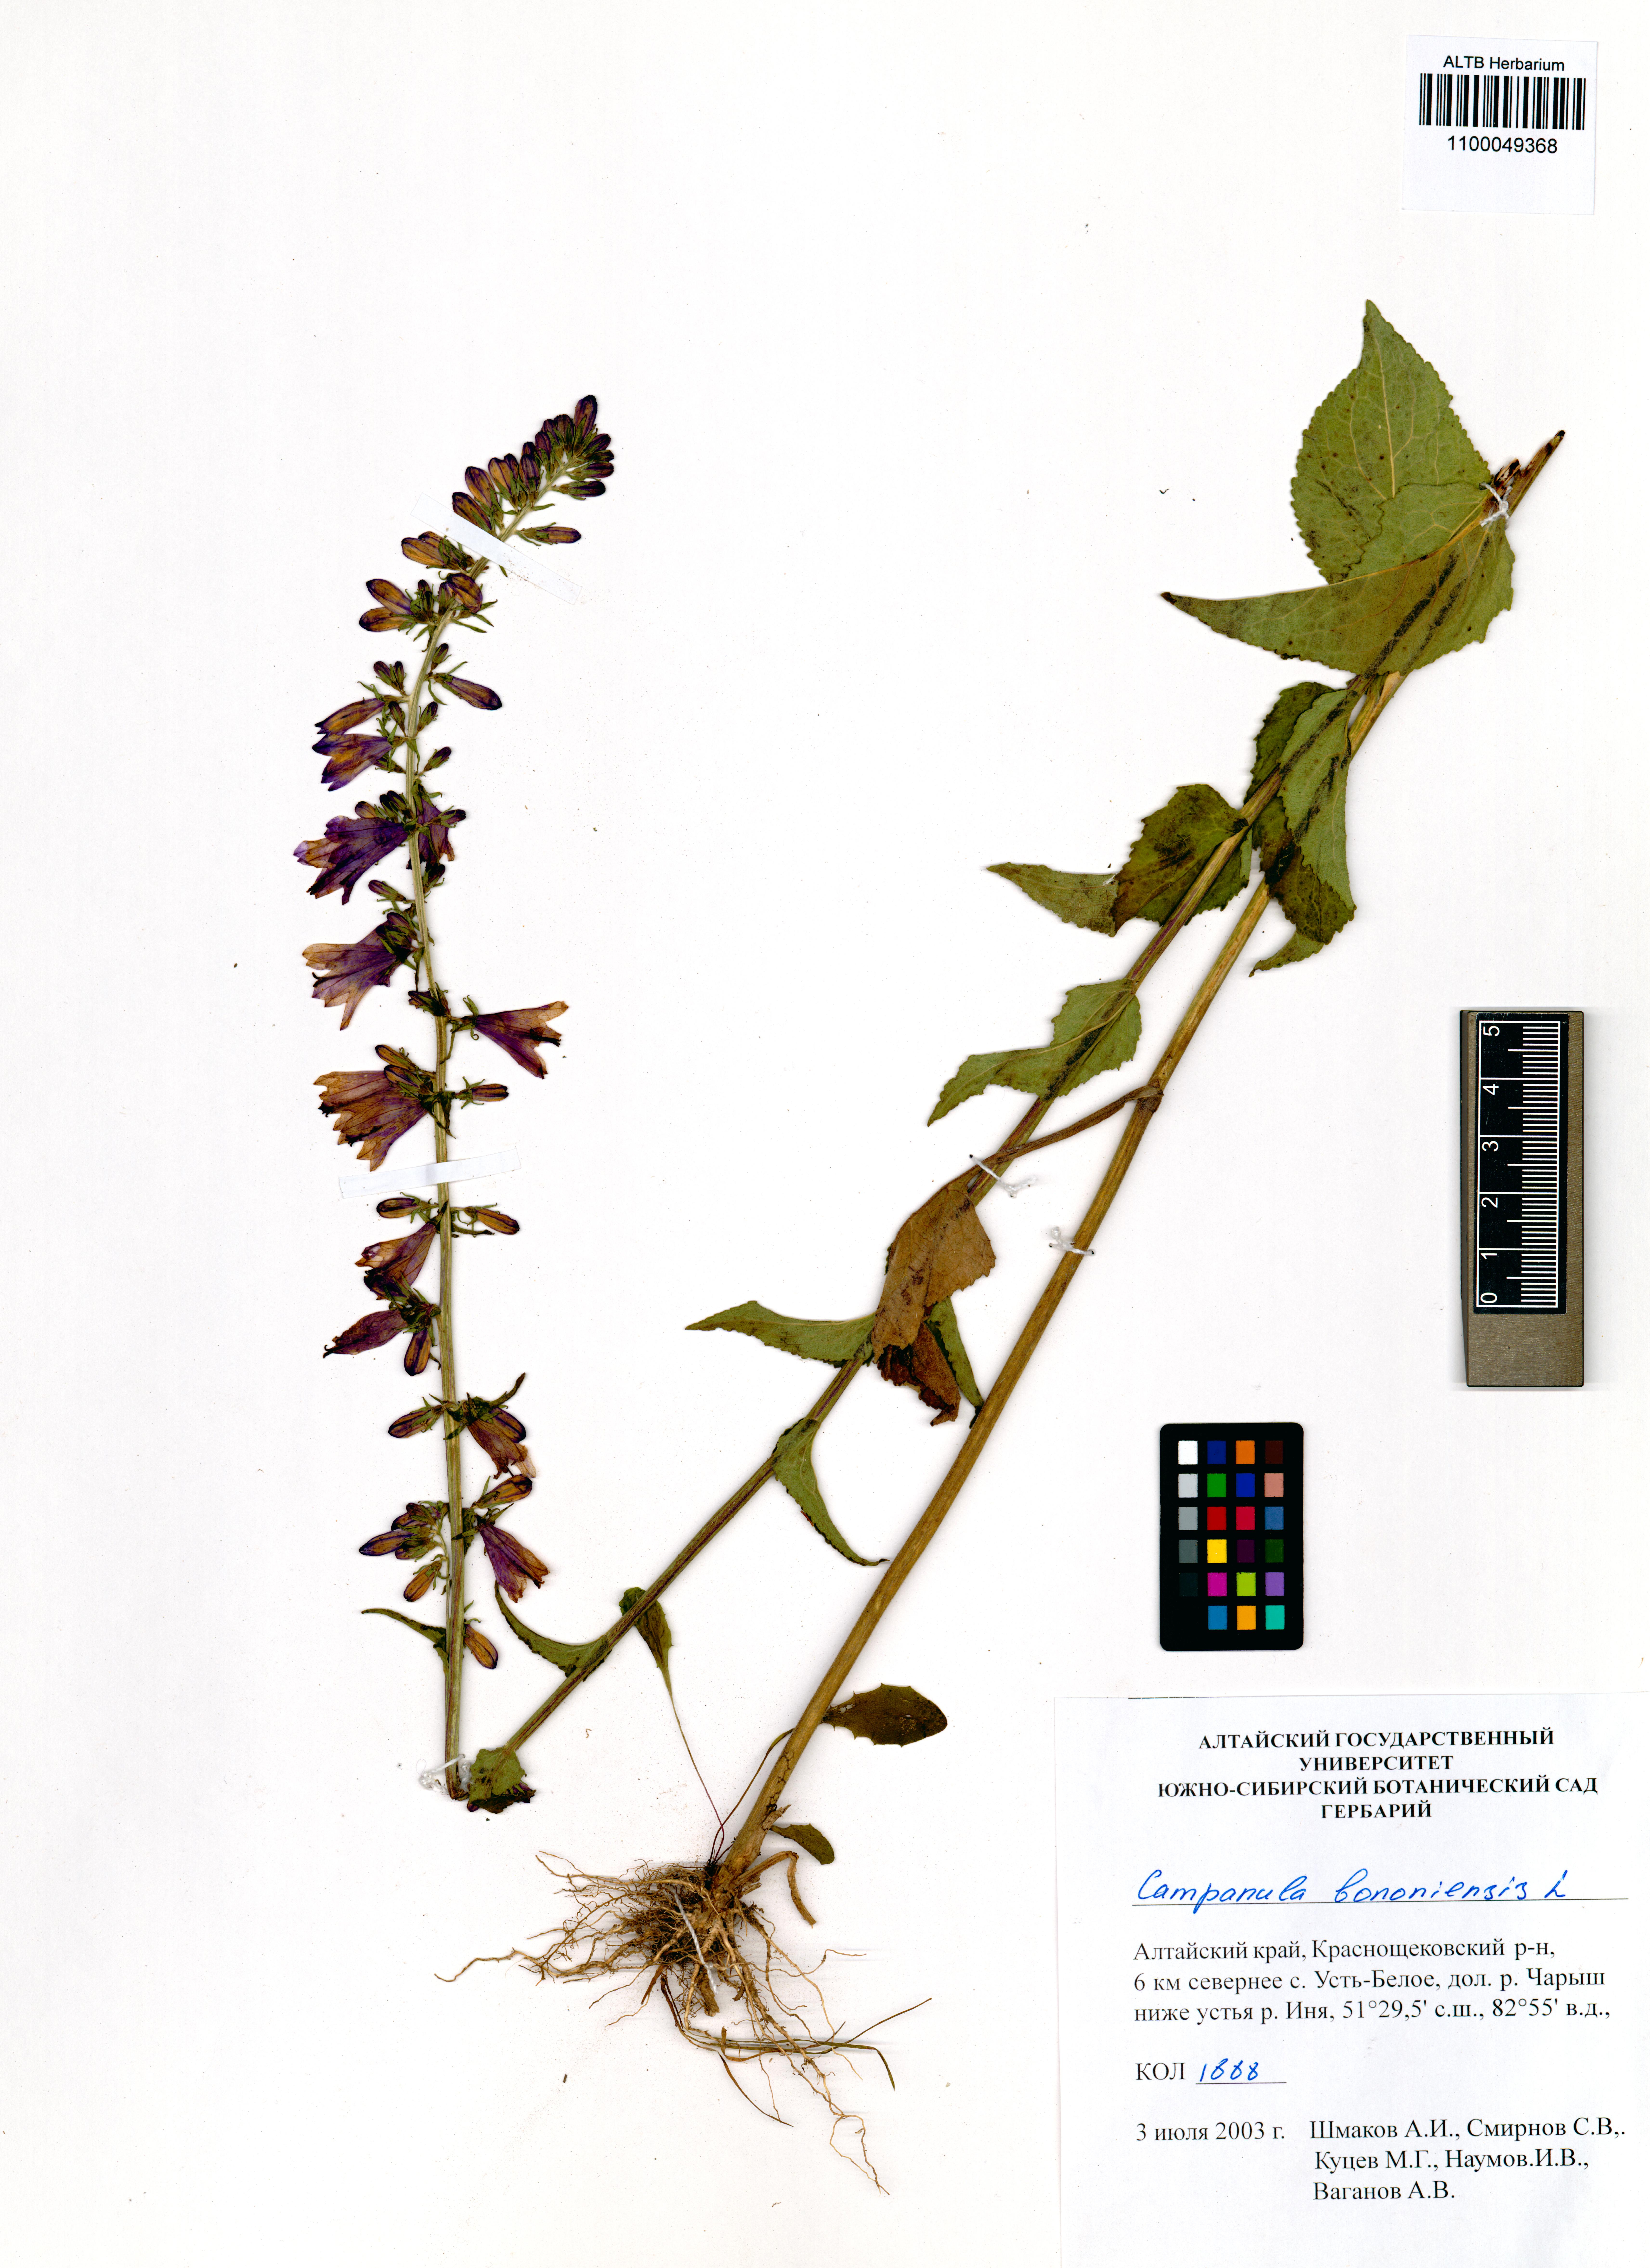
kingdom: Plantae
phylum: Tracheophyta
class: Magnoliopsida
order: Asterales
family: Campanulaceae
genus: Campanula
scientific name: Campanula bononiensis
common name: Pale bellflower
